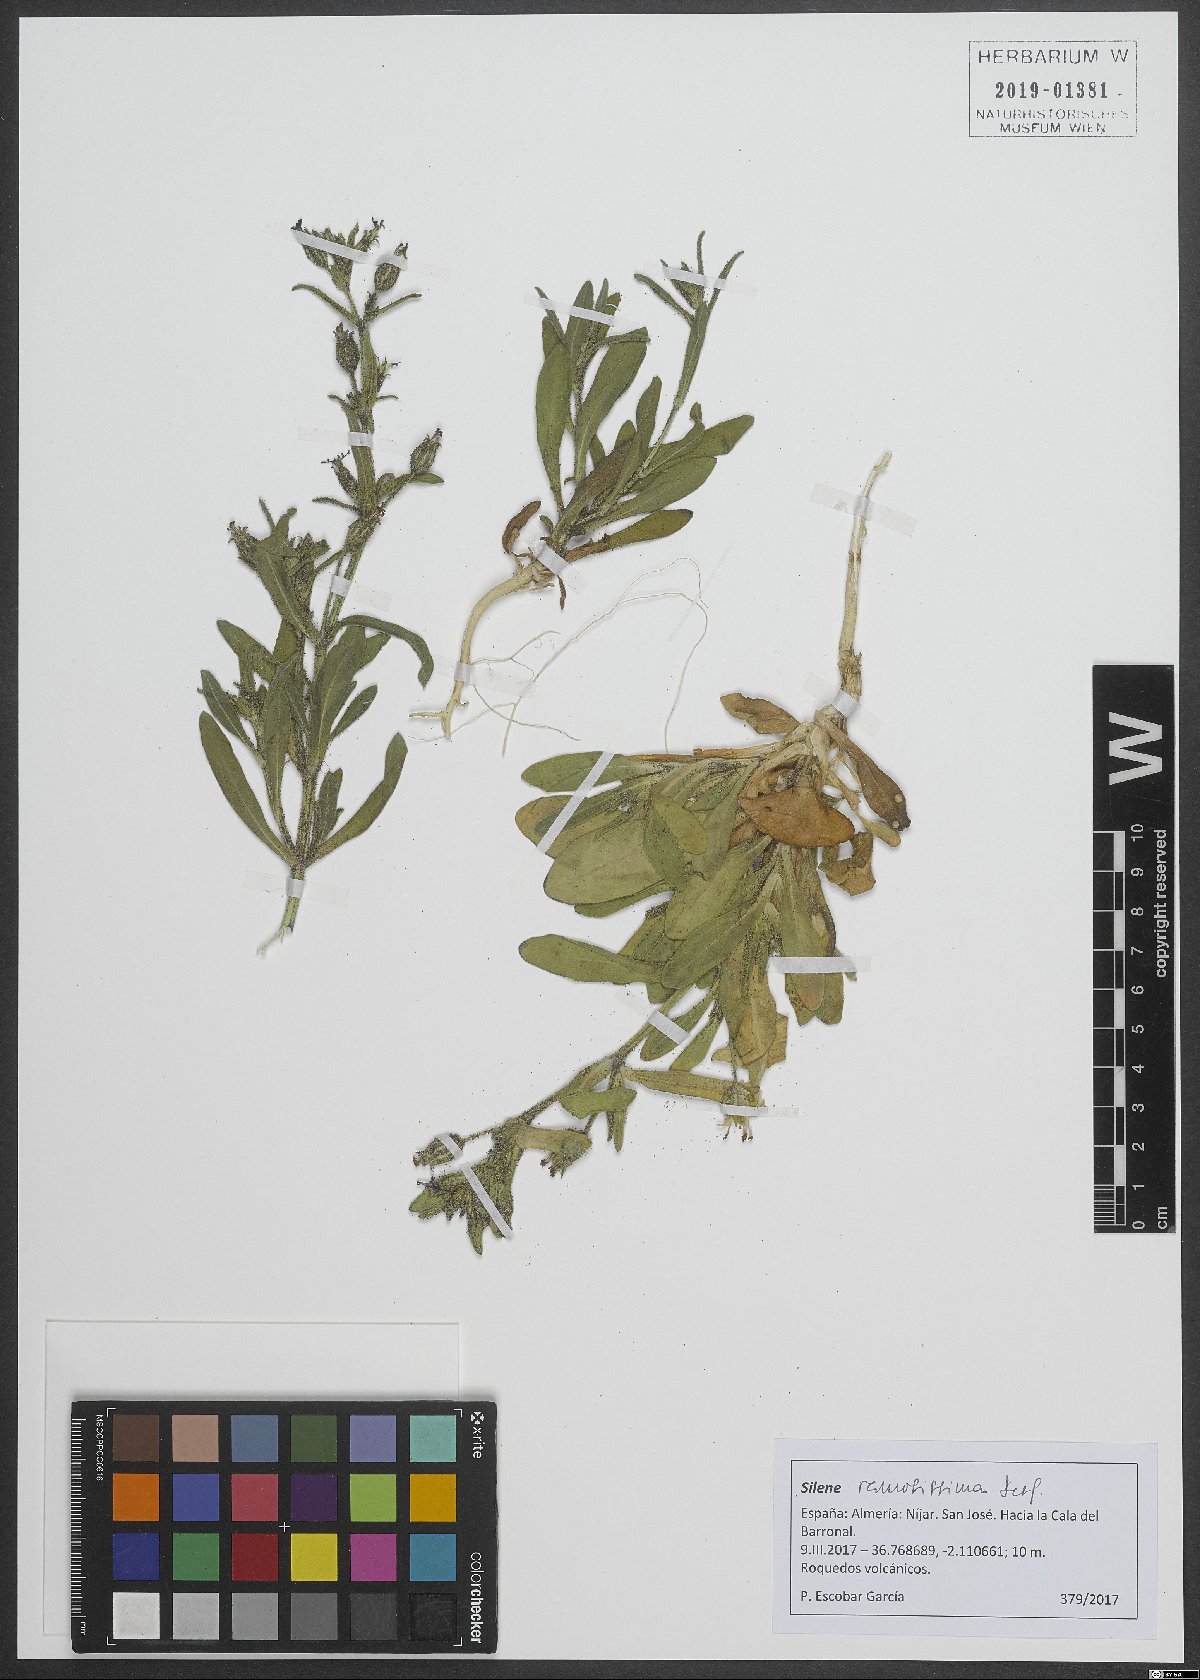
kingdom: Plantae
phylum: Tracheophyta
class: Magnoliopsida
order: Caryophyllales
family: Caryophyllaceae
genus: Silene
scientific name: Silene ramosissima
